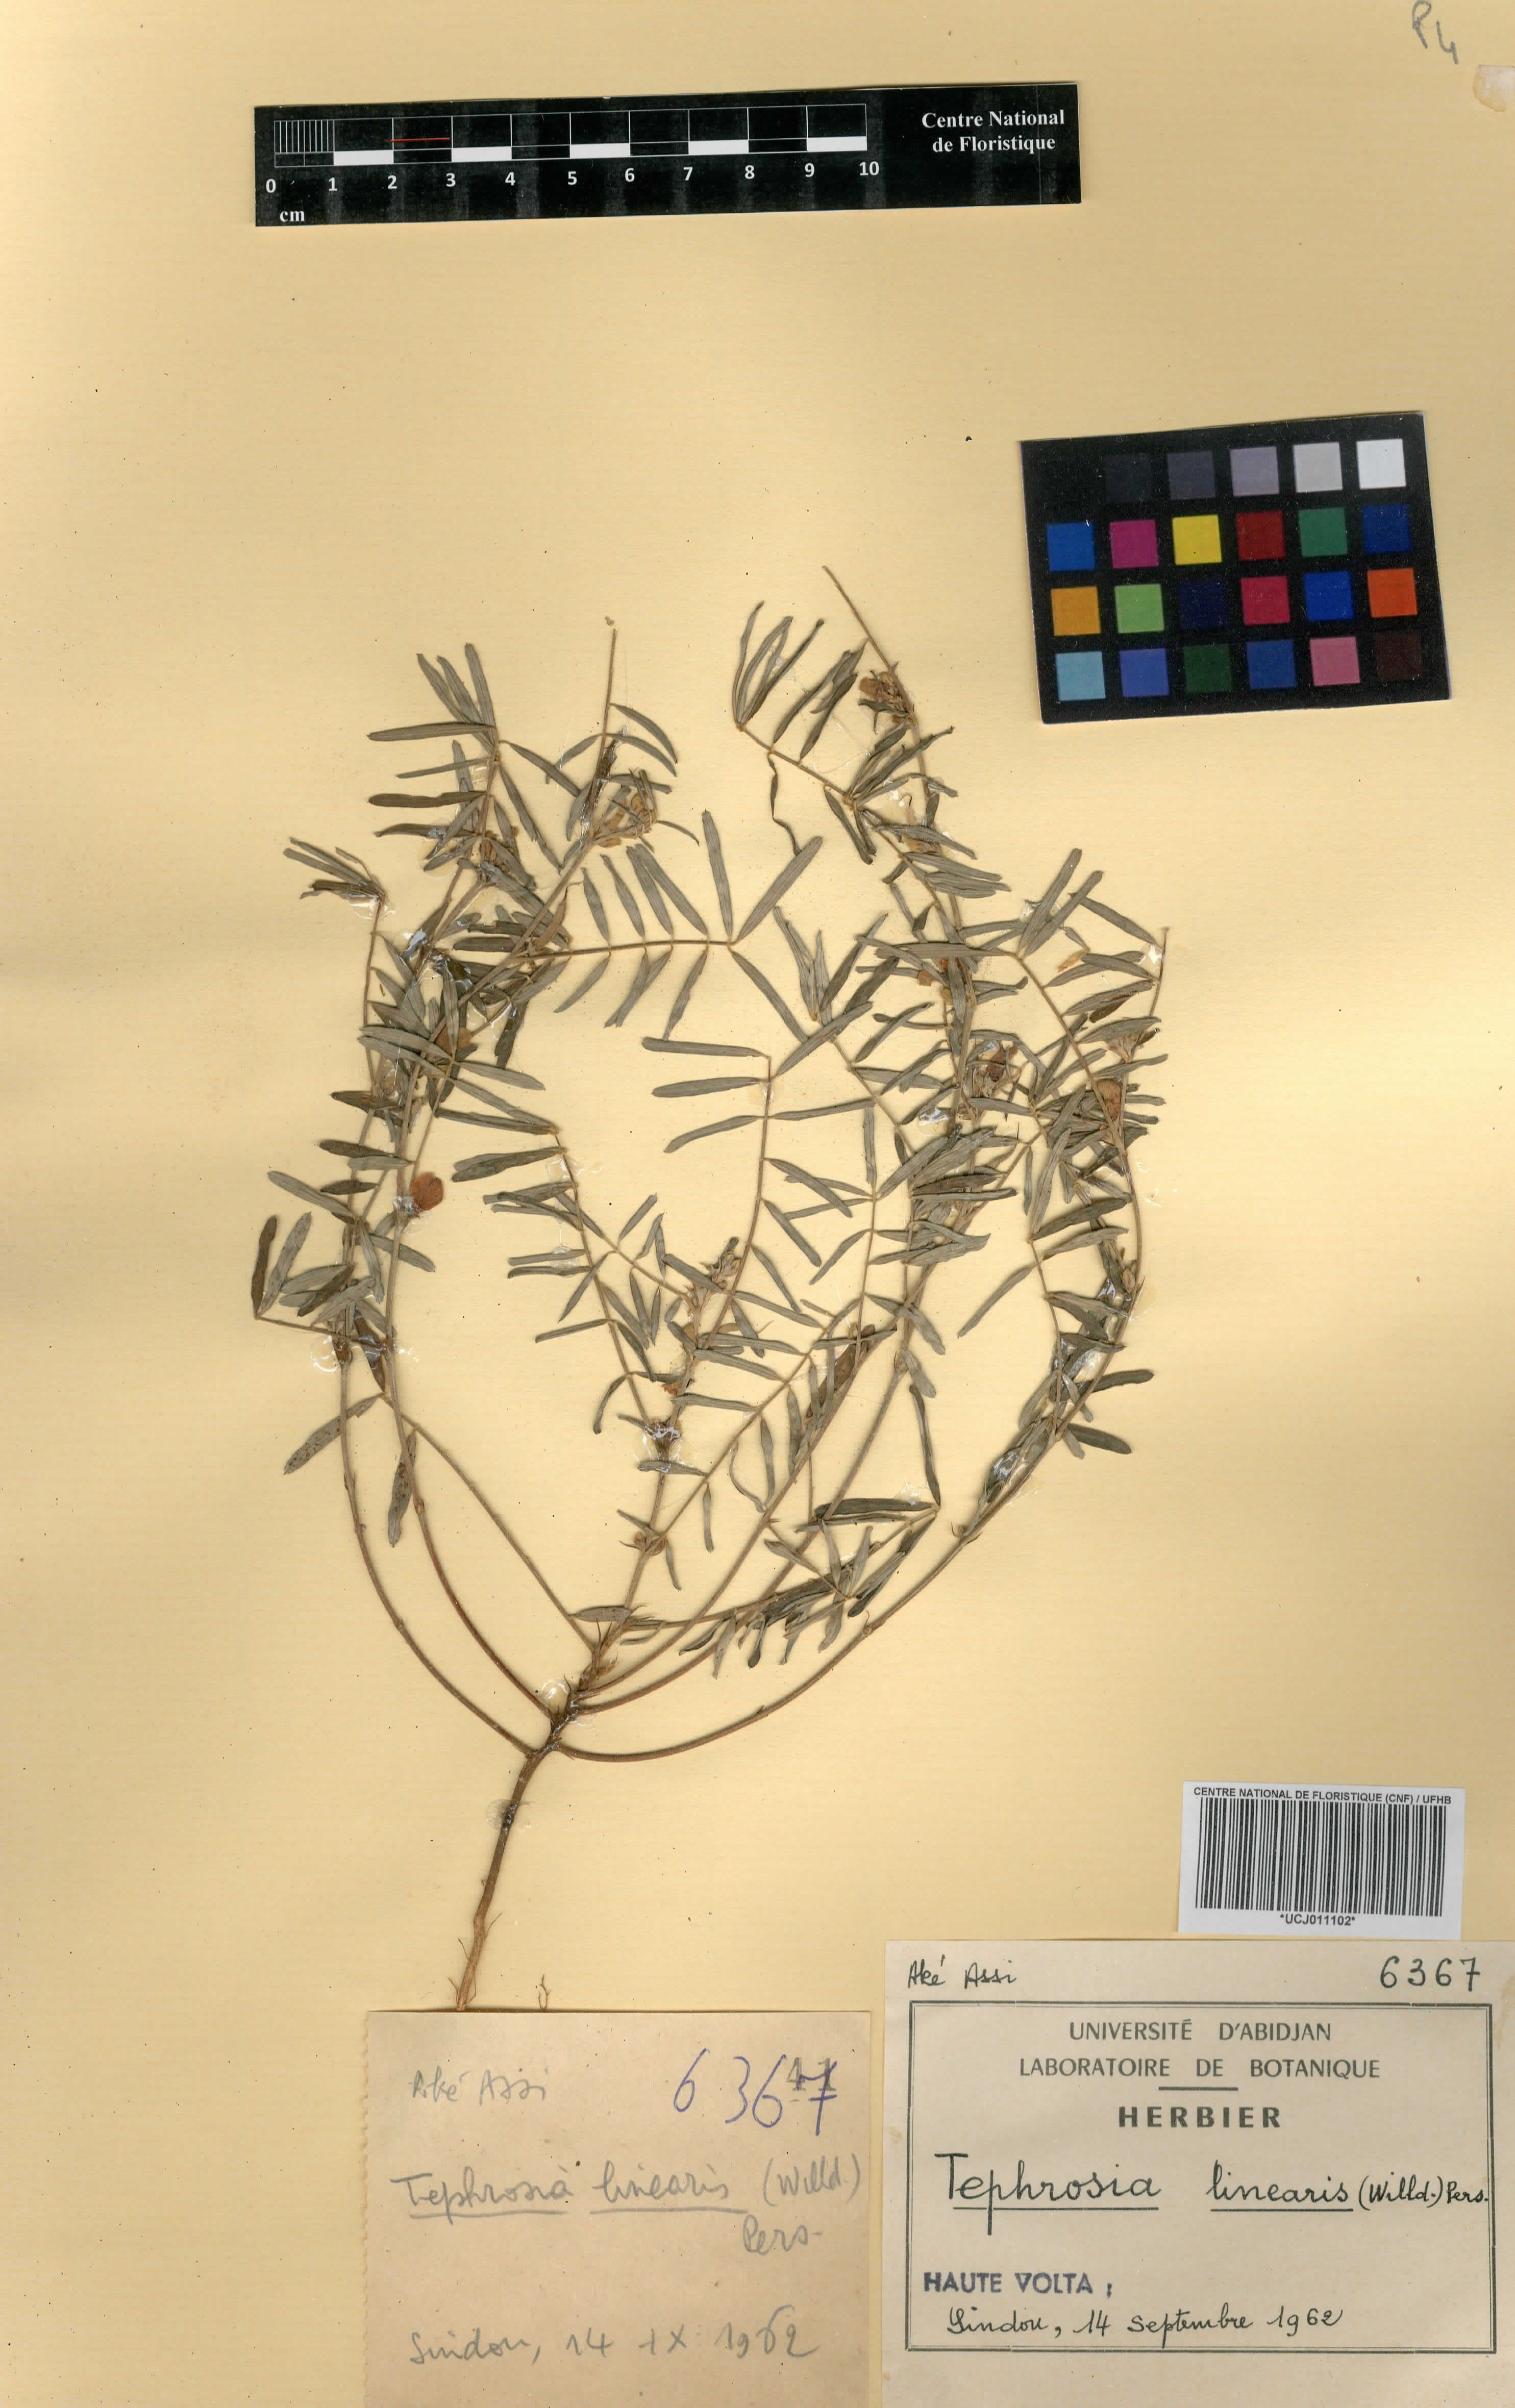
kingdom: Plantae
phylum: Tracheophyta
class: Magnoliopsida
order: Fabales
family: Fabaceae
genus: Tephrosia
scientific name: Tephrosia linearis
